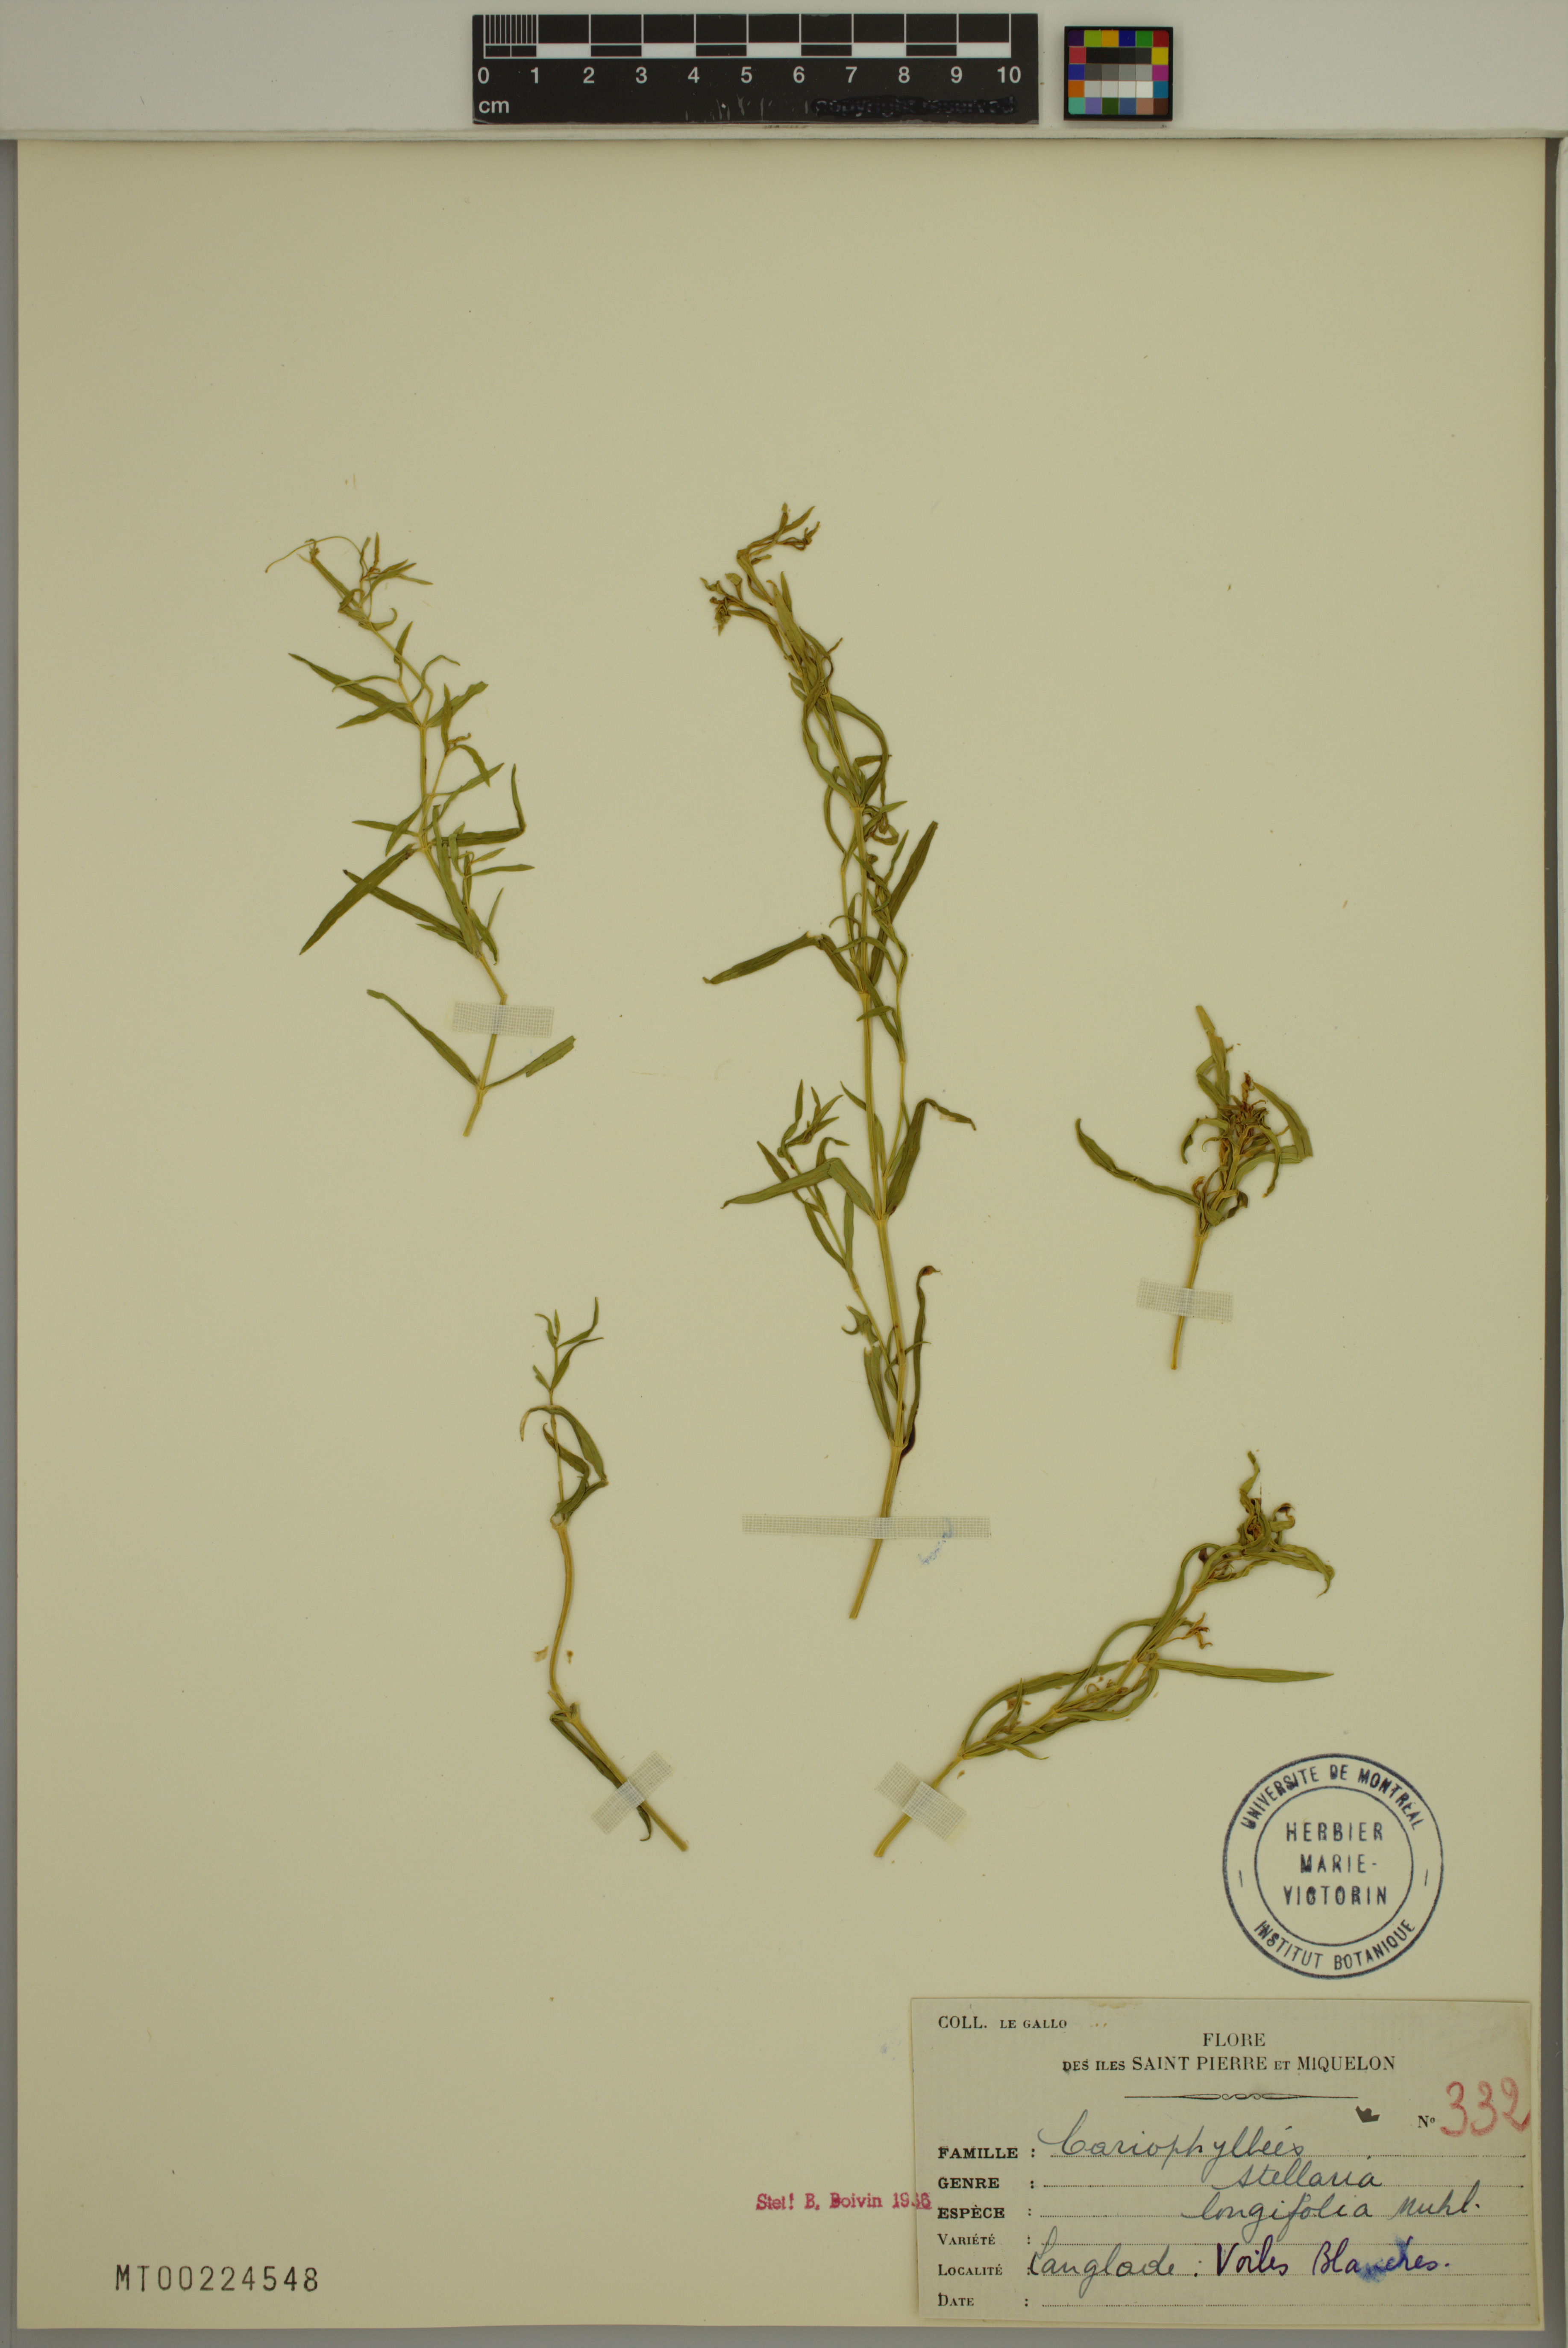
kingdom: Plantae
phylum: Tracheophyta
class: Magnoliopsida
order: Caryophyllales
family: Caryophyllaceae
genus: Stellaria
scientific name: Stellaria longifolia
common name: Long-leaved chickweed
